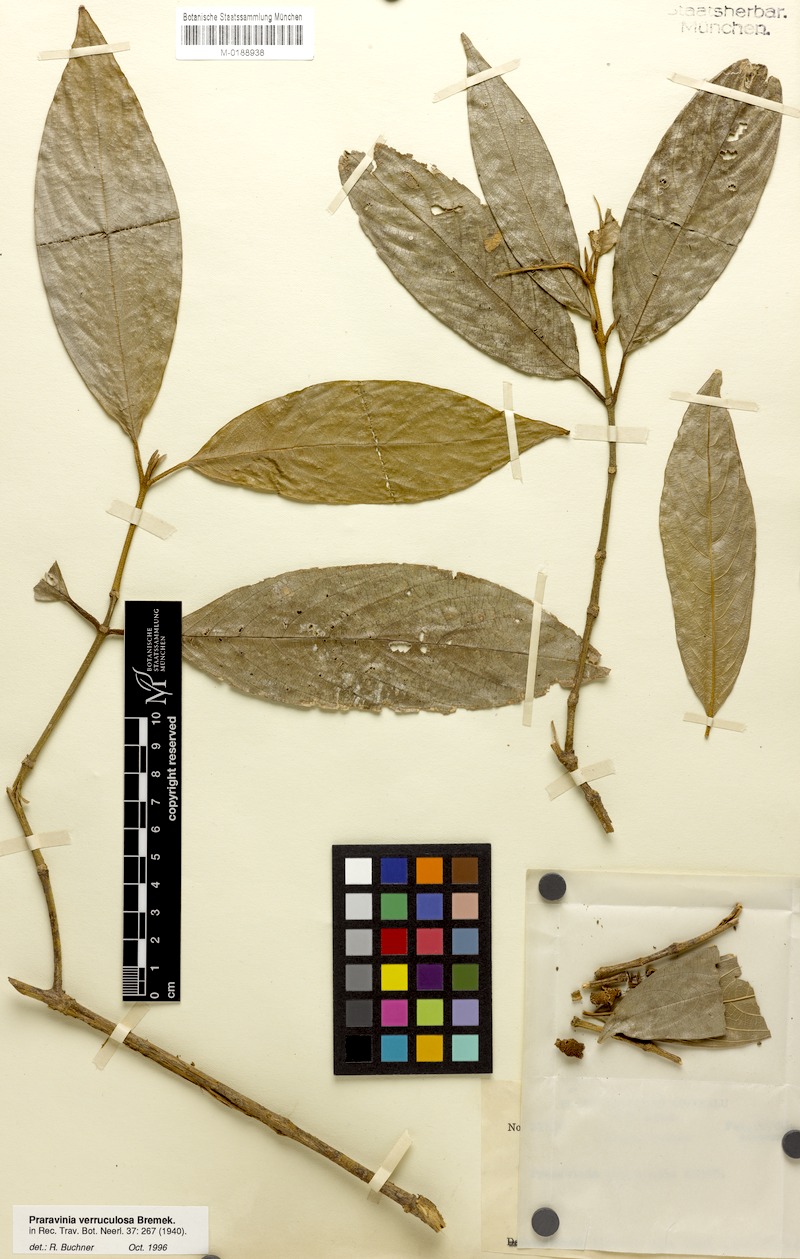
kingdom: Plantae
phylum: Tracheophyta
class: Magnoliopsida
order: Gentianales
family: Rubiaceae
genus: Praravinia
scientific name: Praravinia verruculosa
